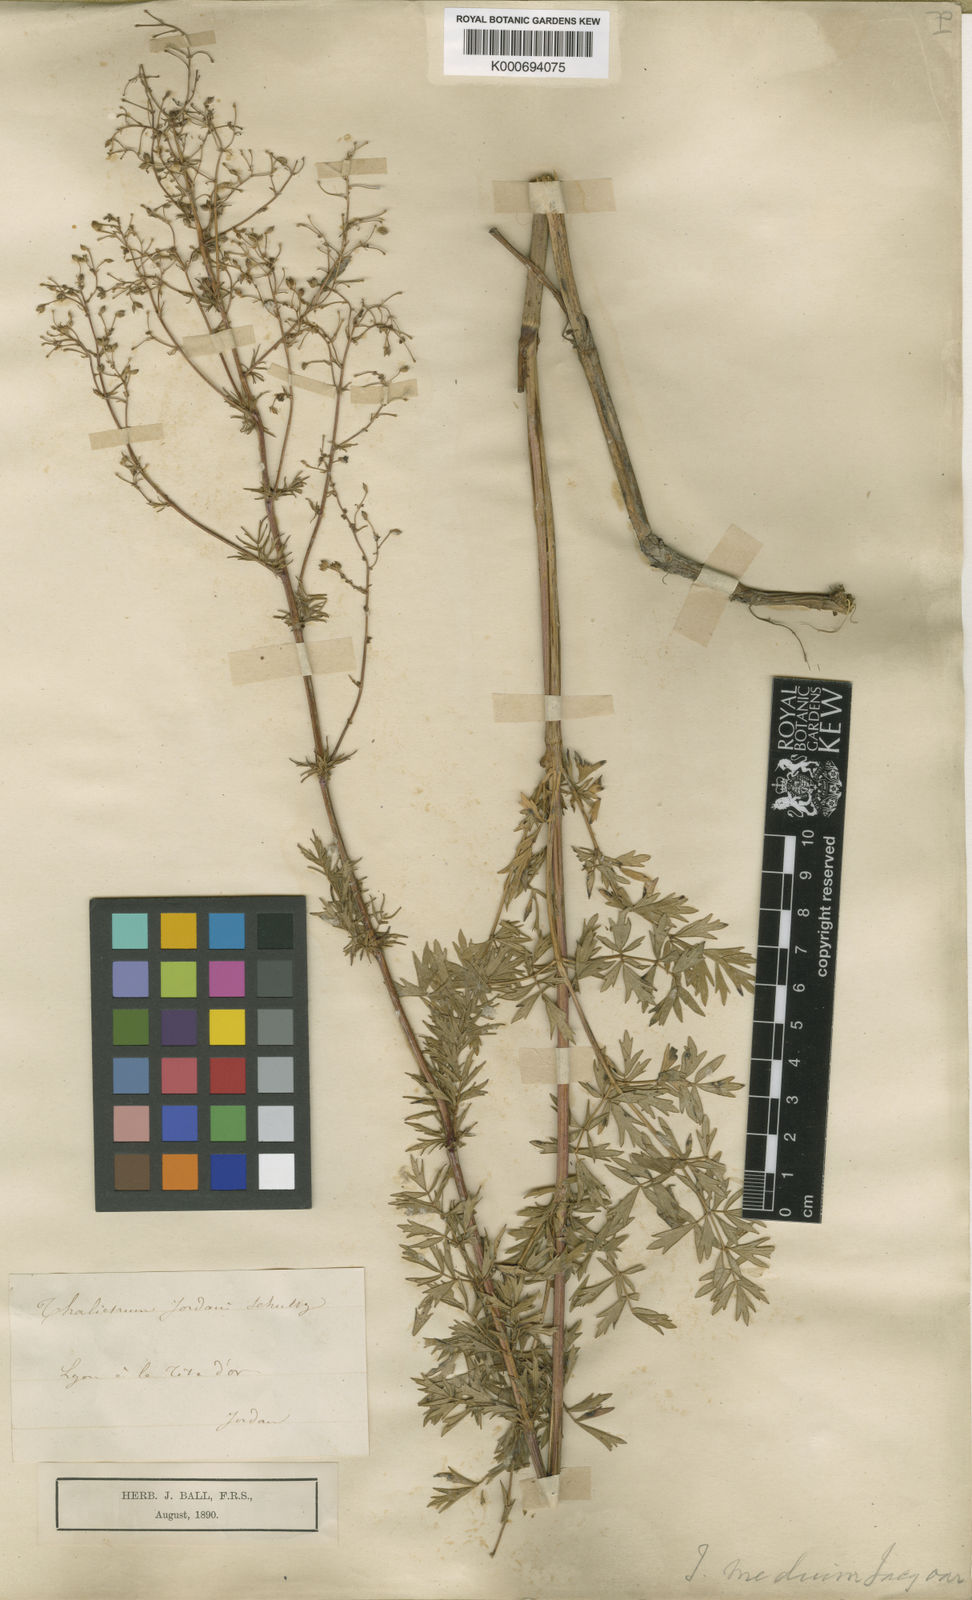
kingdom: Plantae
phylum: Tracheophyta
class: Magnoliopsida
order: Ranunculales
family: Ranunculaceae
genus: Thalictrum
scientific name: Thalictrum timeroyi
